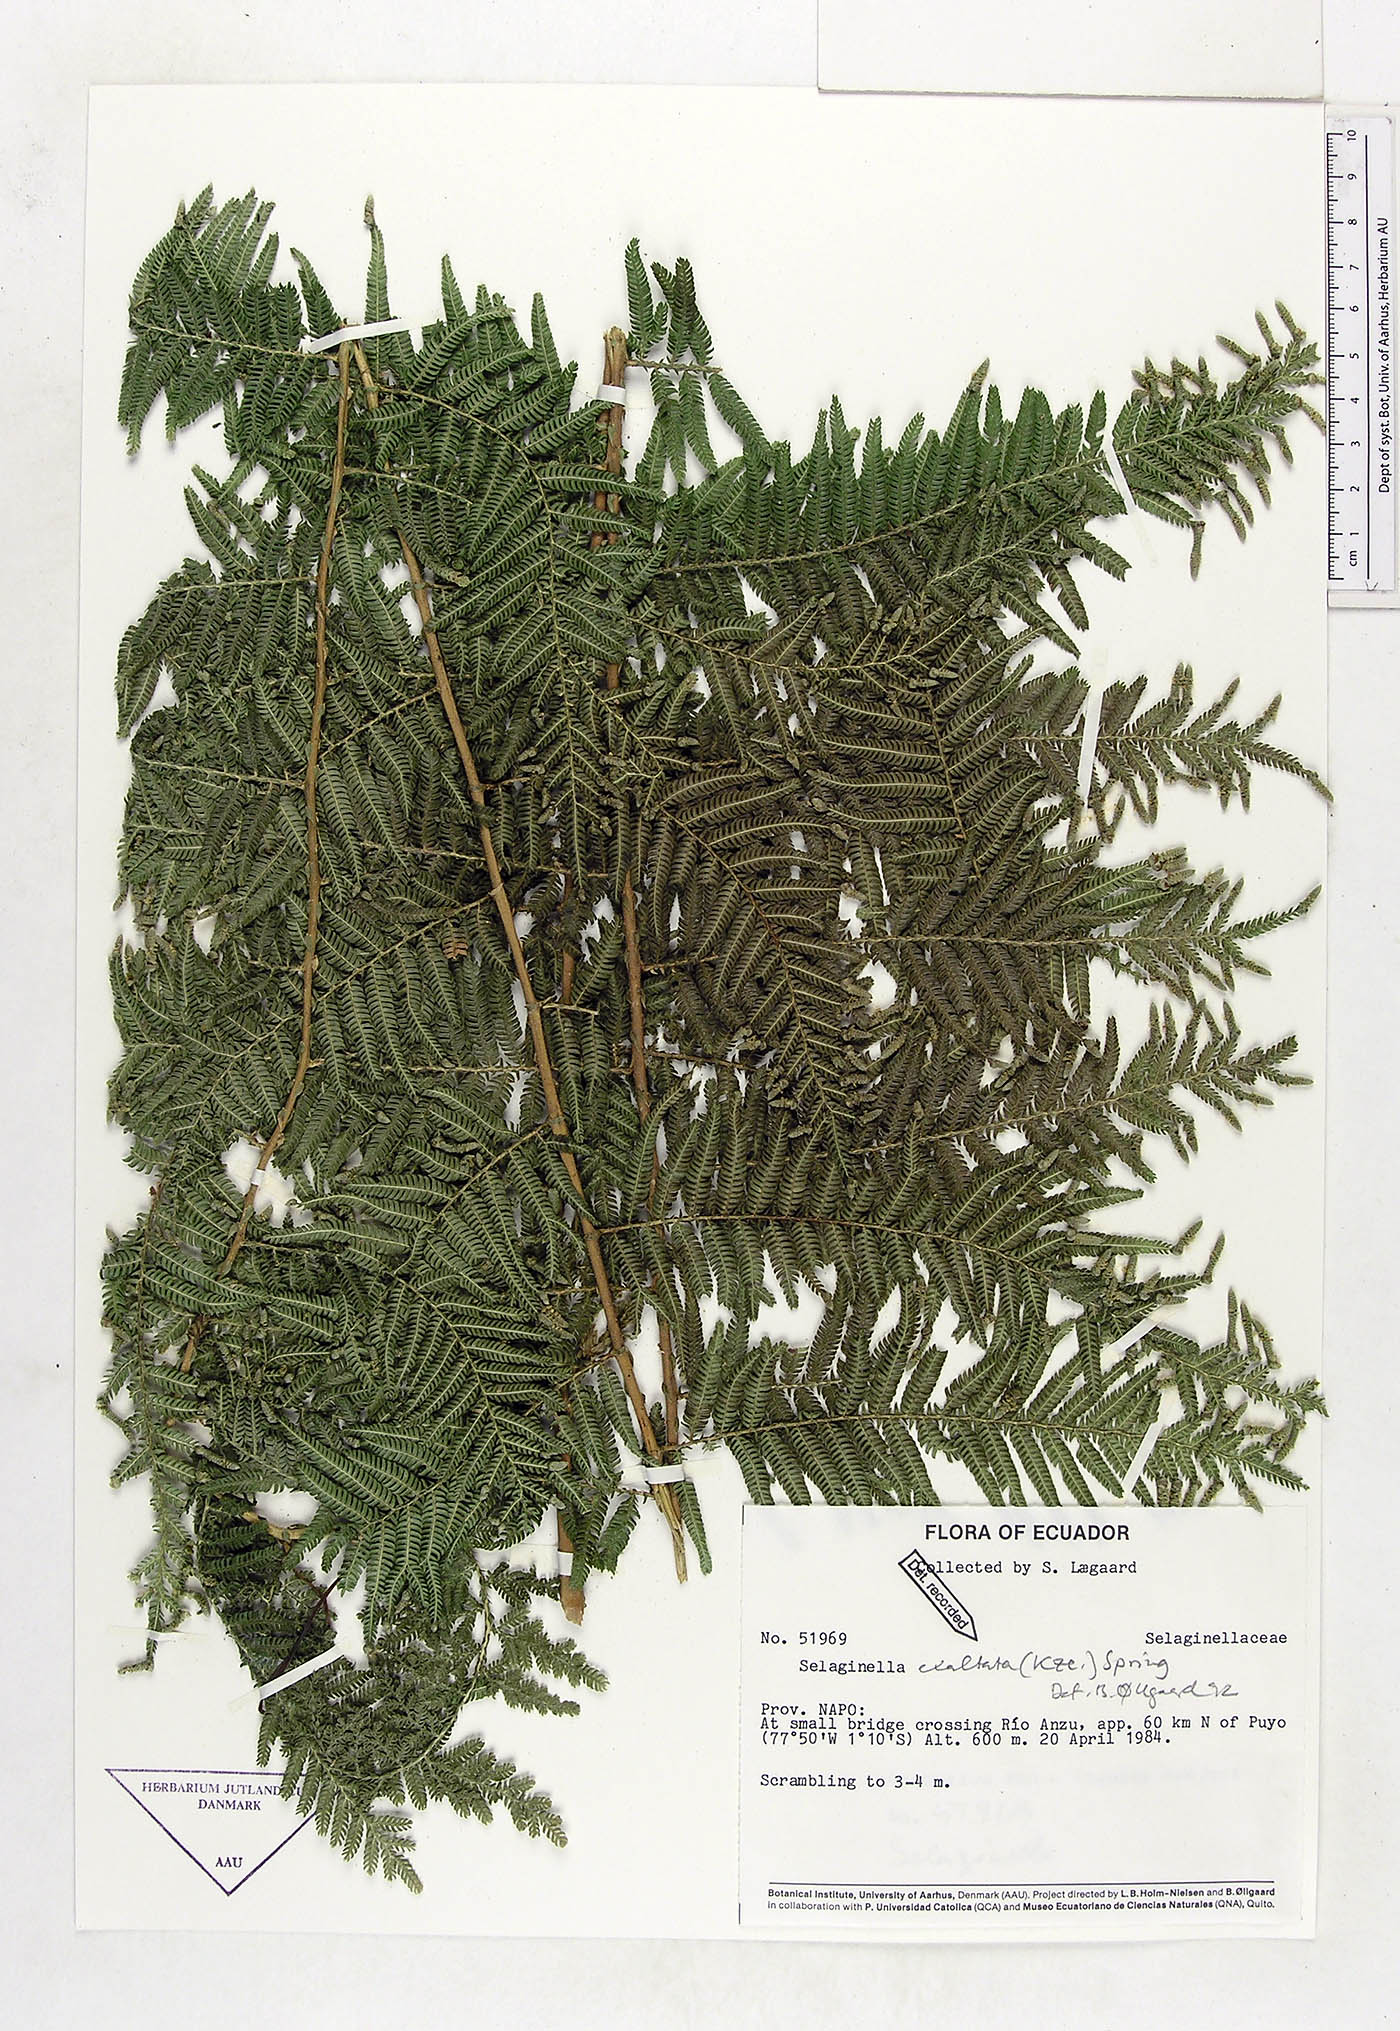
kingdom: Plantae
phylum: Tracheophyta
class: Lycopodiopsida
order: Selaginellales
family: Selaginellaceae
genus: Selaginella
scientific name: Selaginella exaltata
